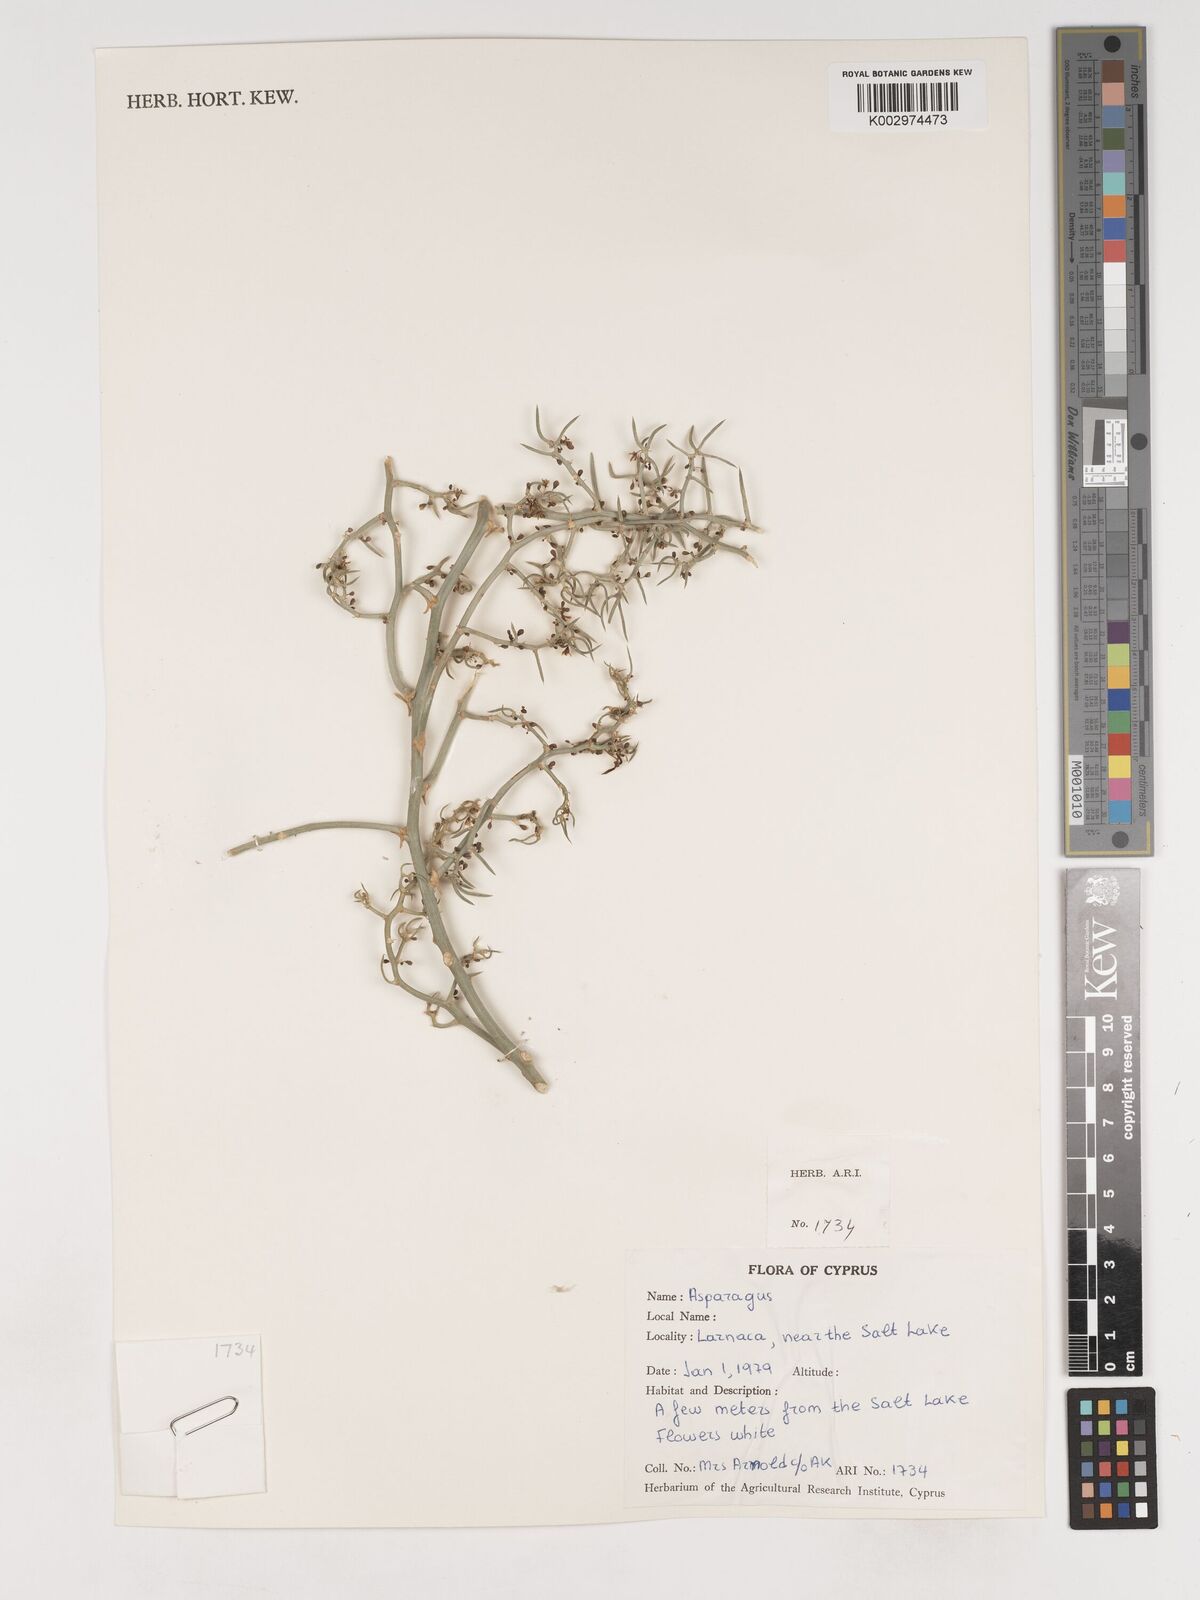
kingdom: Plantae
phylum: Tracheophyta
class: Liliopsida
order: Asparagales
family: Asparagaceae
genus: Asparagus
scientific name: Asparagus
